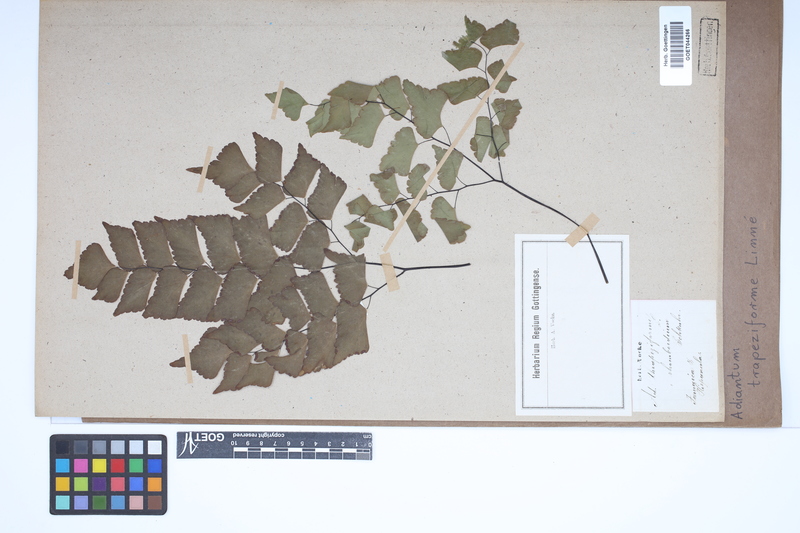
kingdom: Plantae
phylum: Tracheophyta
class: Polypodiopsida
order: Polypodiales
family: Pteridaceae
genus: Adiantum
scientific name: Adiantum trapeziforme
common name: Diamond maidenhair
